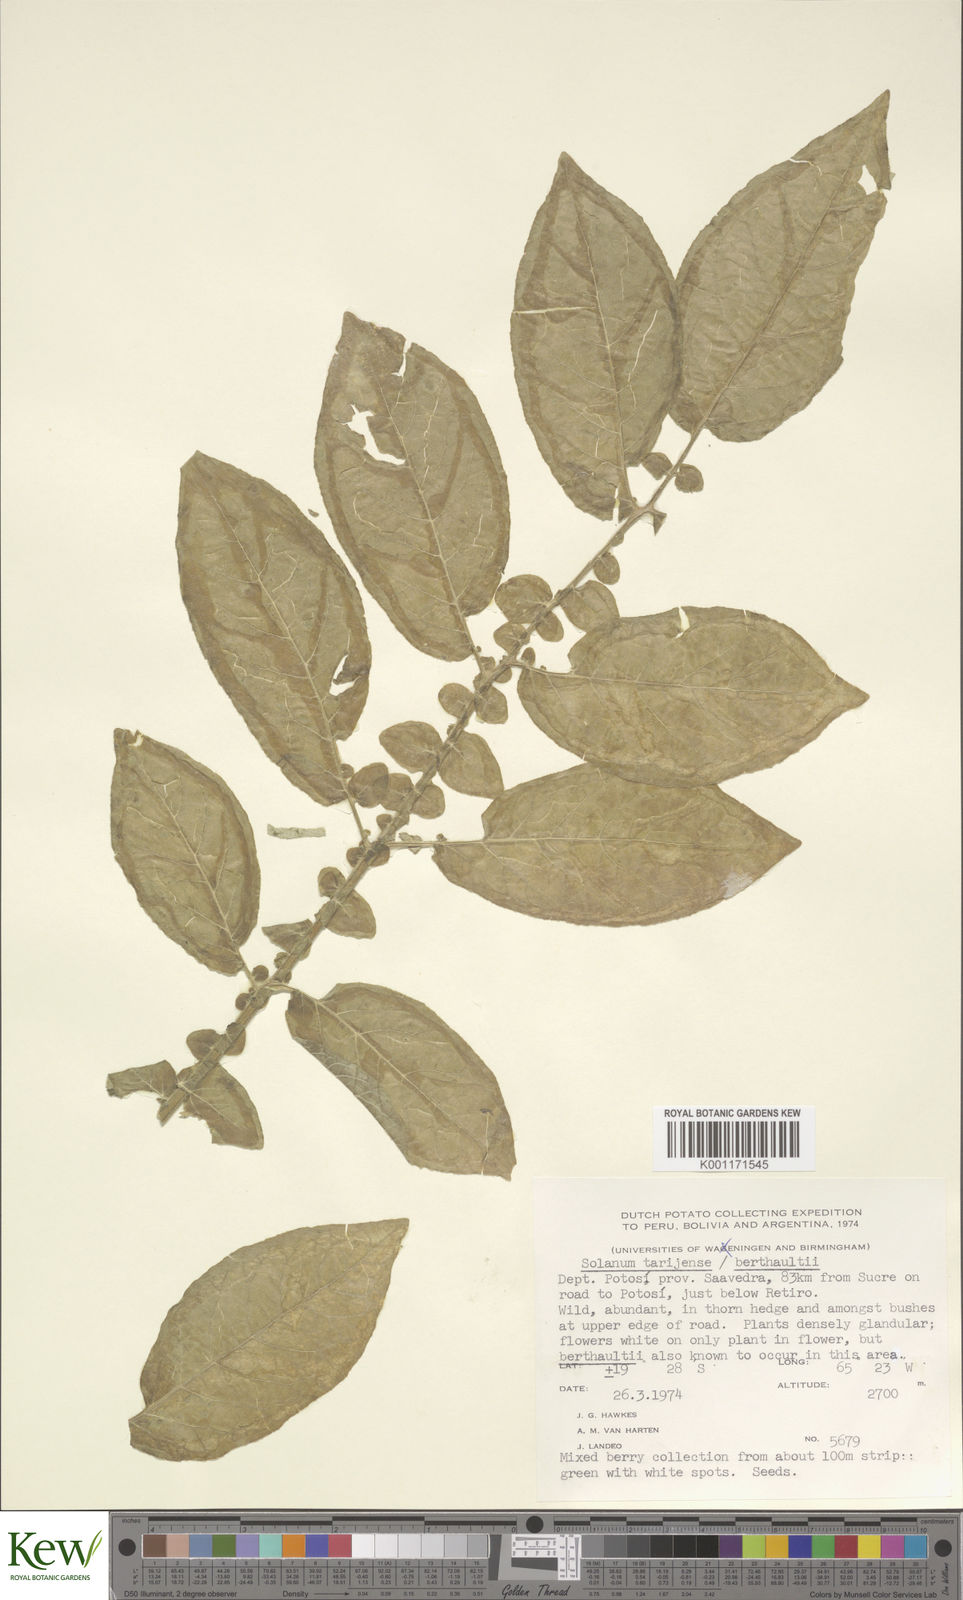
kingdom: Plantae
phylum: Tracheophyta
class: Magnoliopsida
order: Solanales
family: Solanaceae
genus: Solanum
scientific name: Solanum tarijense
